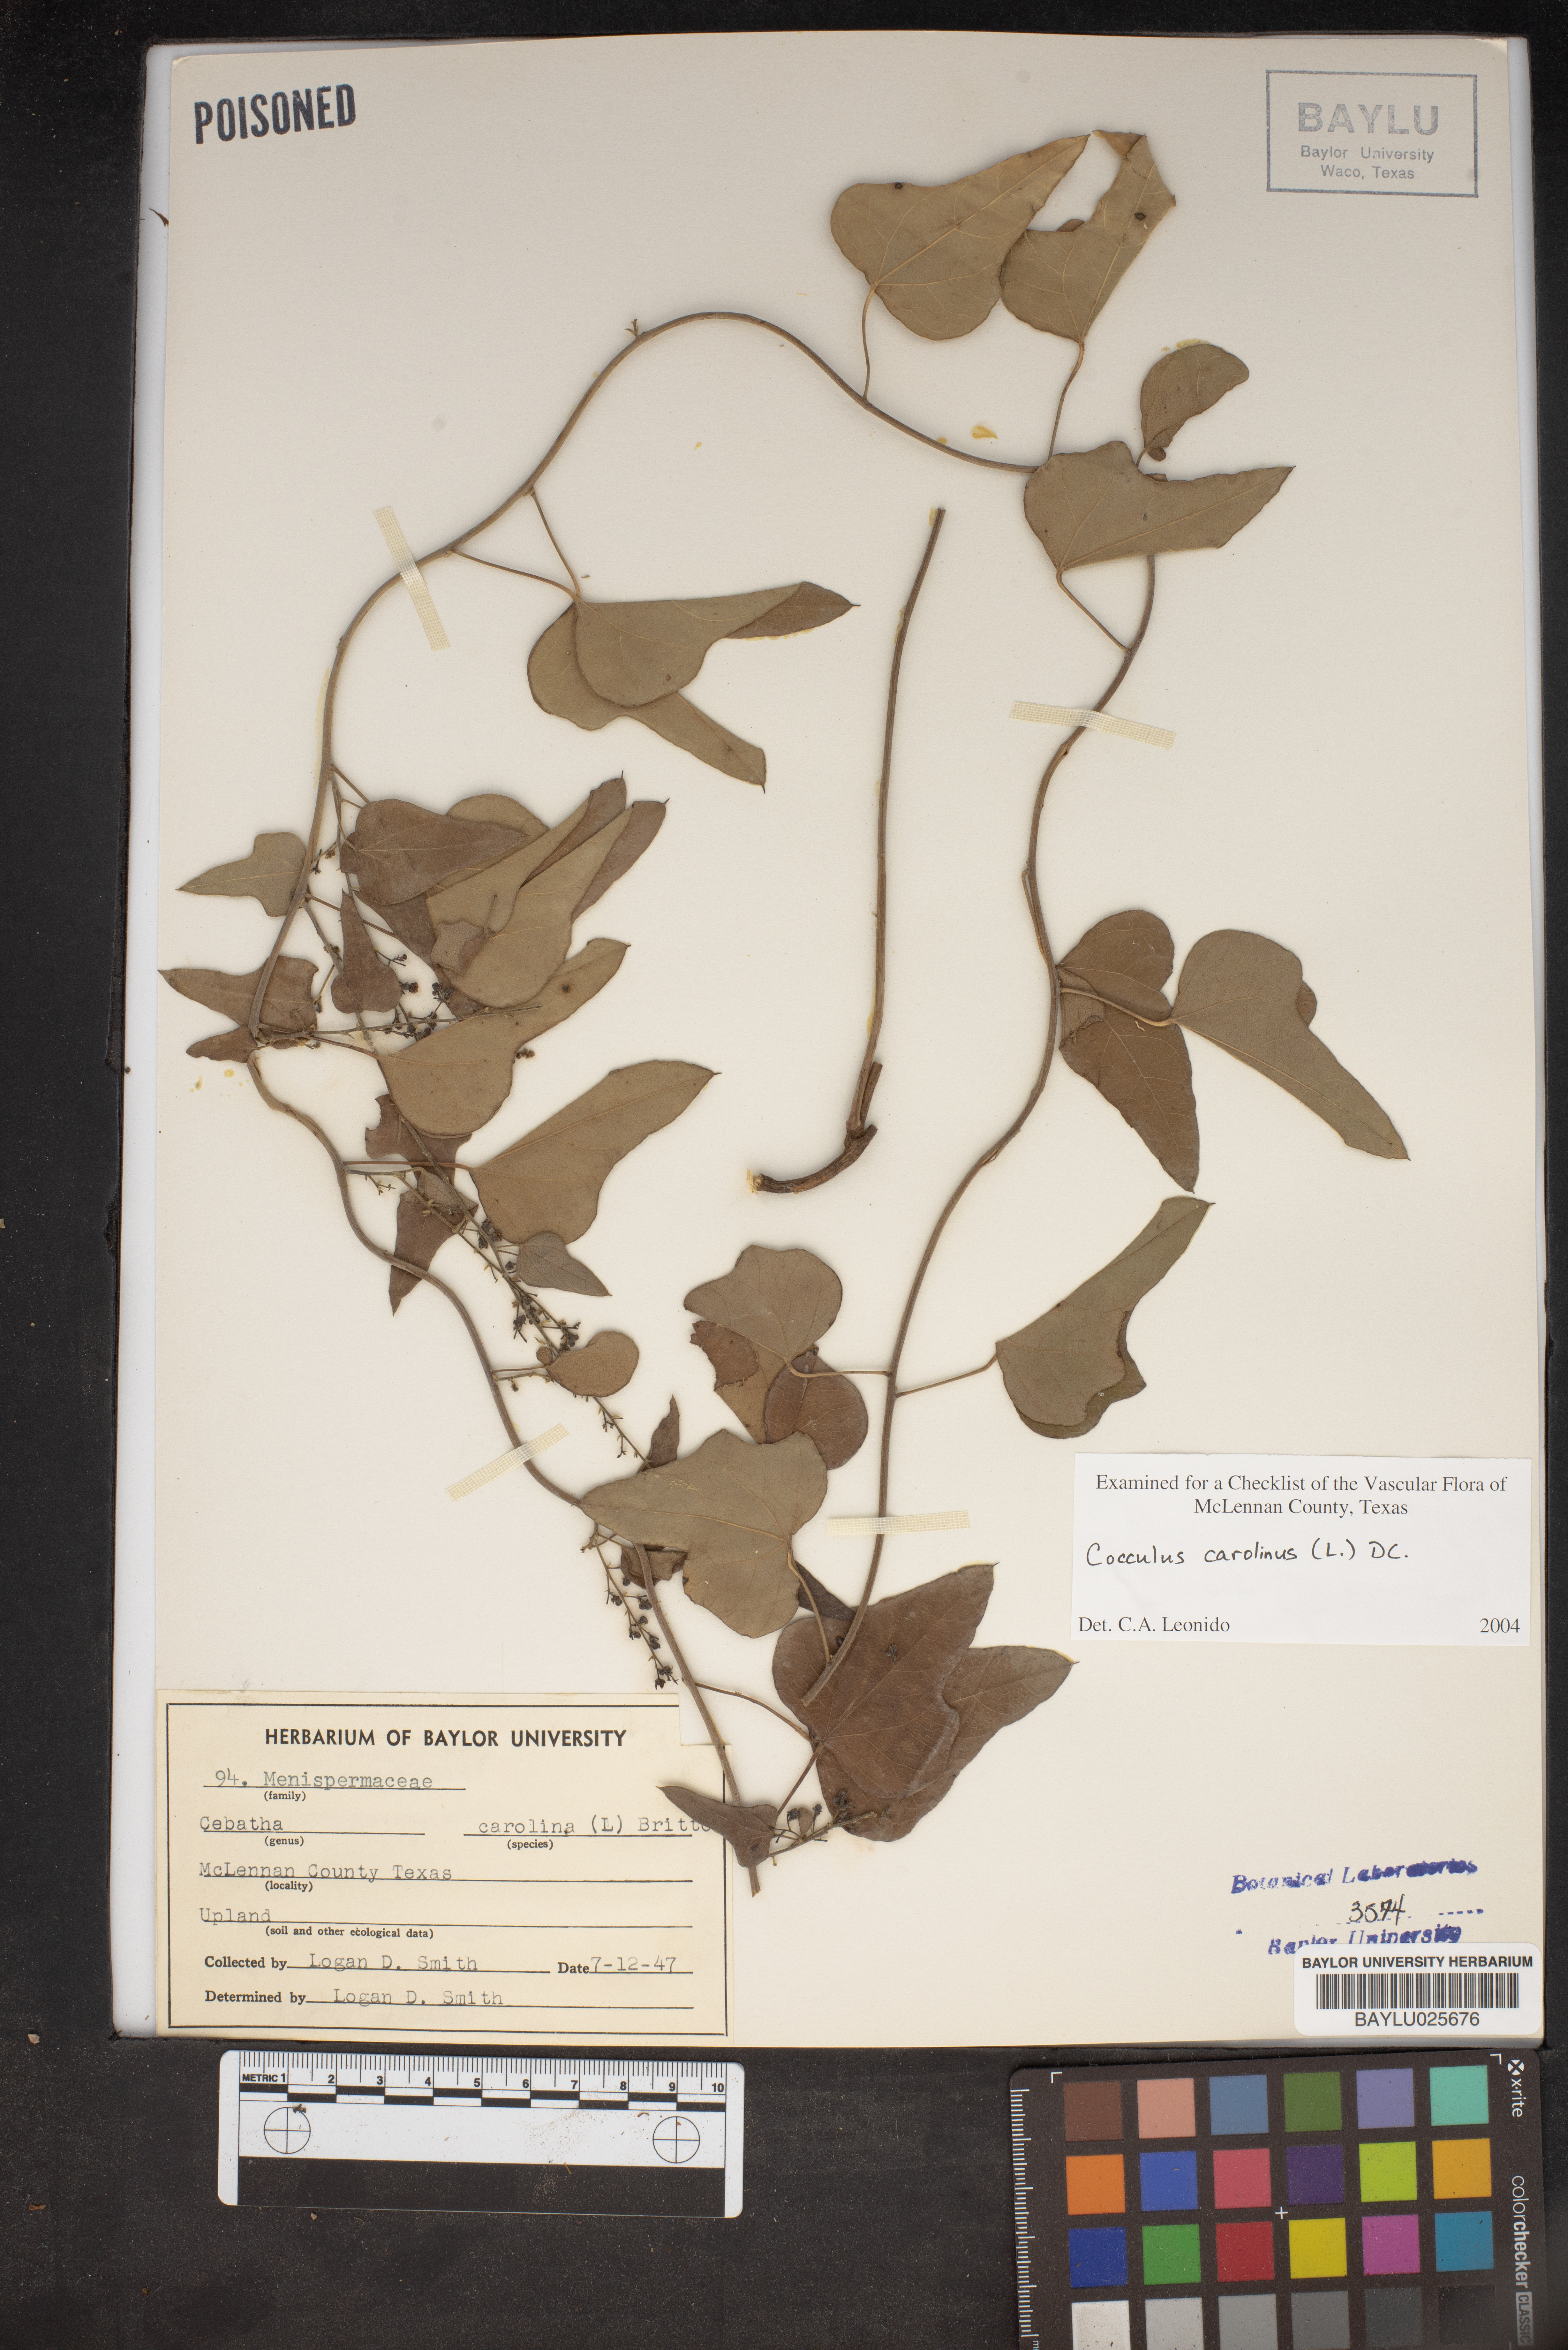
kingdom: Plantae
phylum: Tracheophyta
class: Magnoliopsida
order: Ranunculales
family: Menispermaceae
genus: Cocculus
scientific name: Cocculus carolinus
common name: Carolina moonseed
